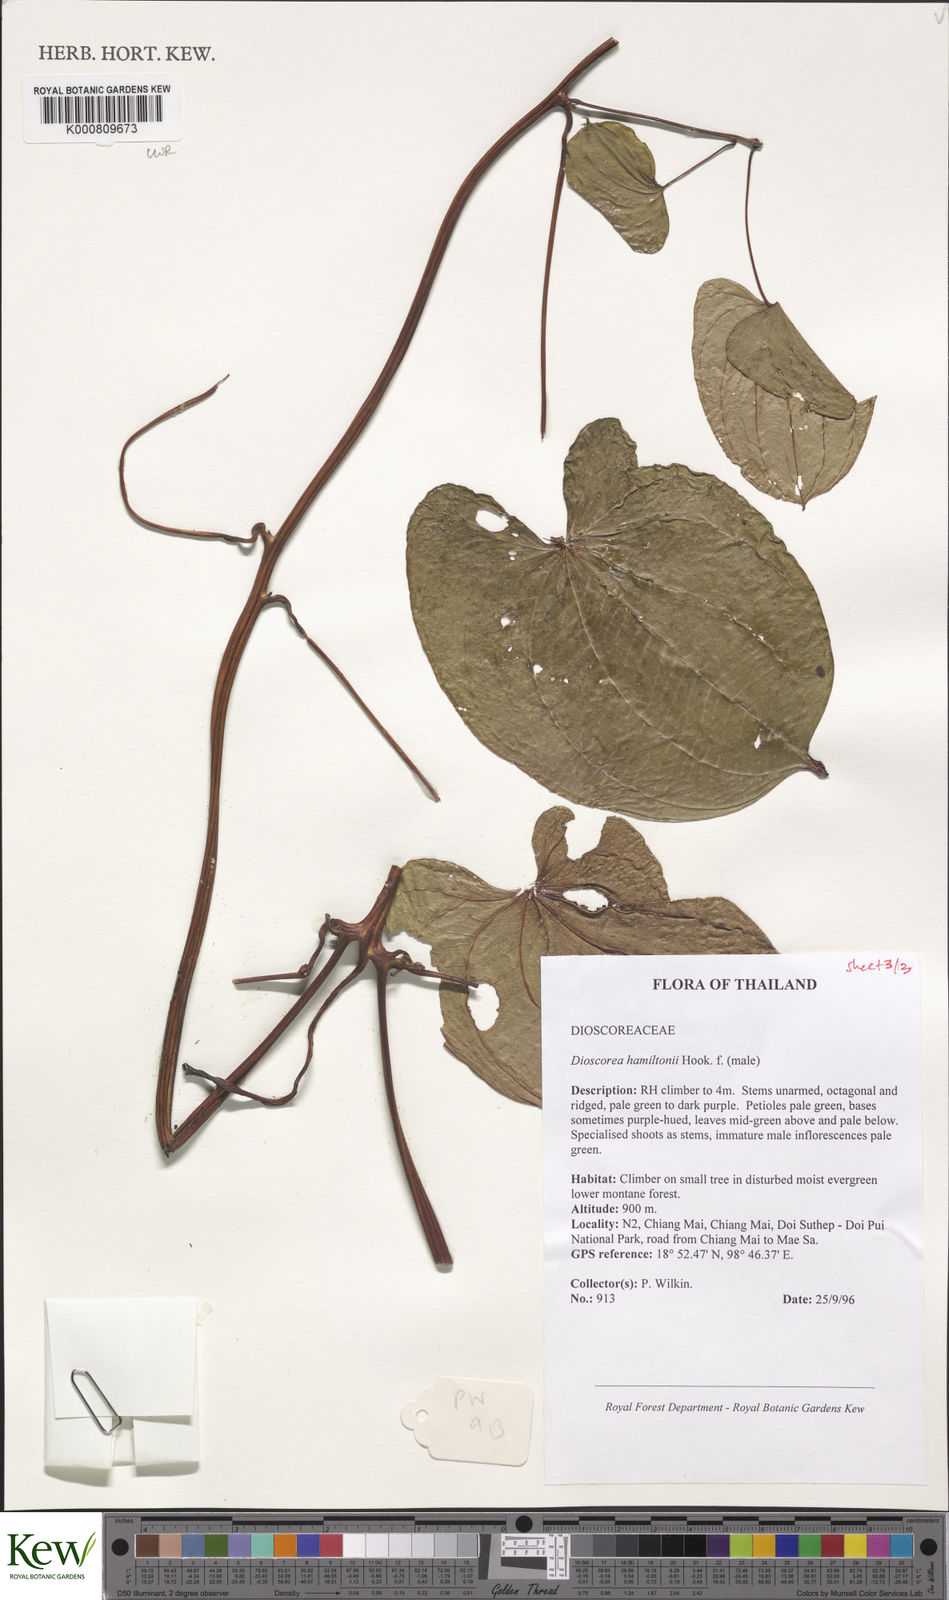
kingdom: Plantae
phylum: Tracheophyta
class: Liliopsida
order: Dioscoreales
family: Dioscoreaceae
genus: Dioscorea
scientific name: Dioscorea hamiltonii
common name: Mountain yam
